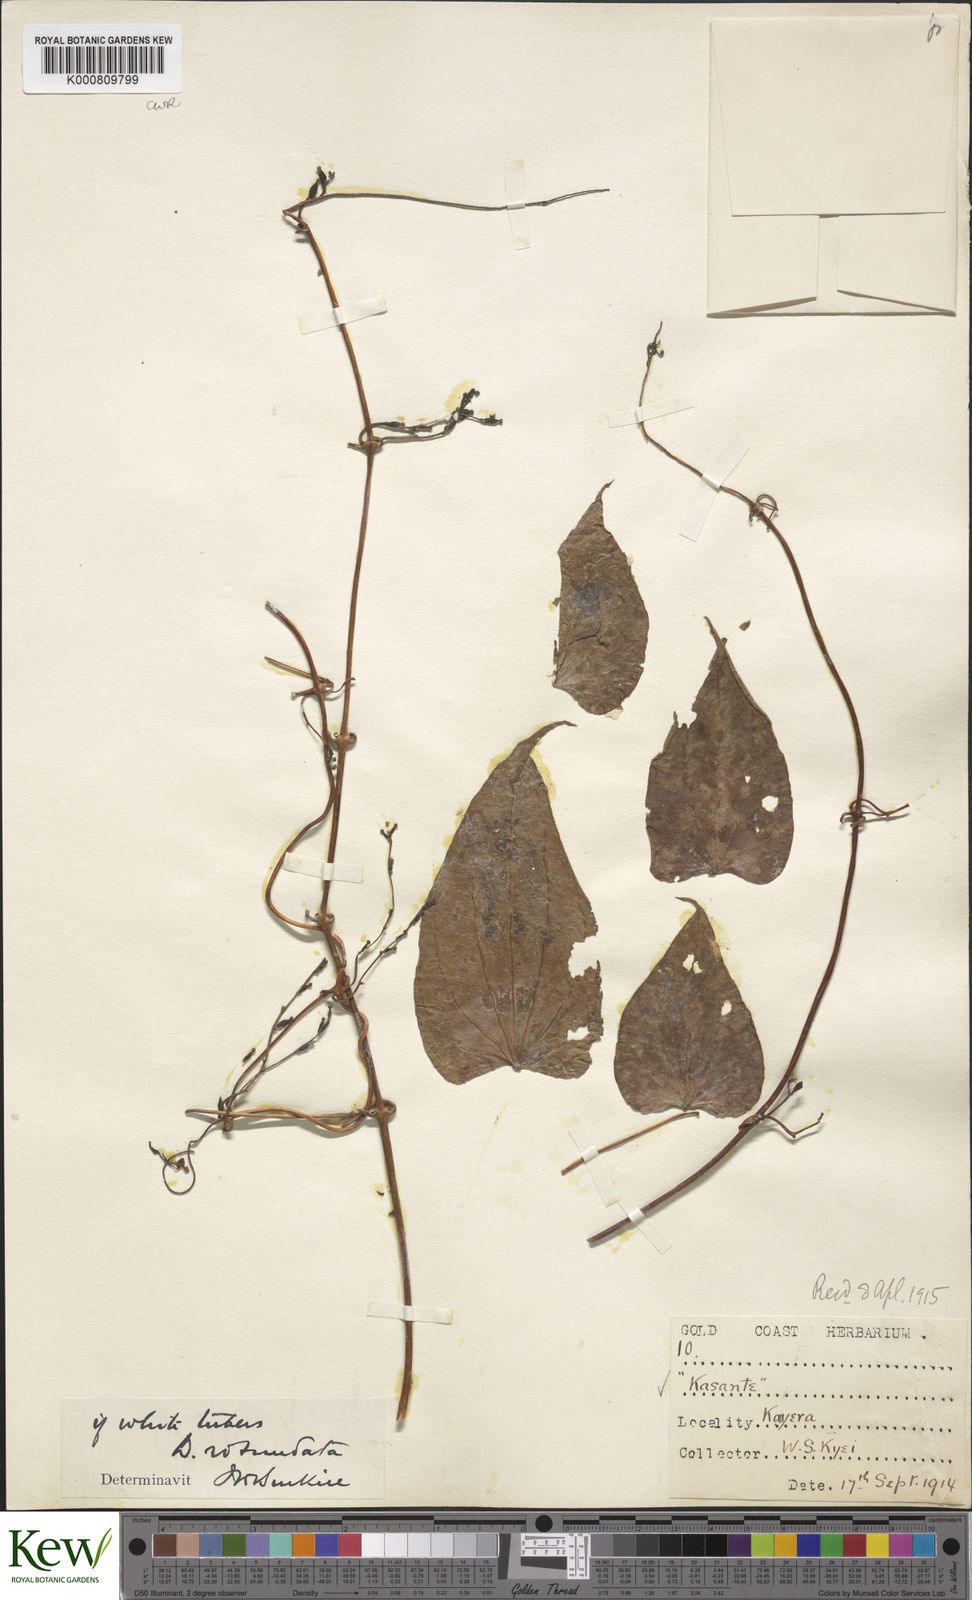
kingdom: Plantae
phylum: Tracheophyta
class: Liliopsida
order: Dioscoreales
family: Dioscoreaceae
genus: Dioscorea
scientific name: Dioscorea cayenensis
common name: Attoto yam
